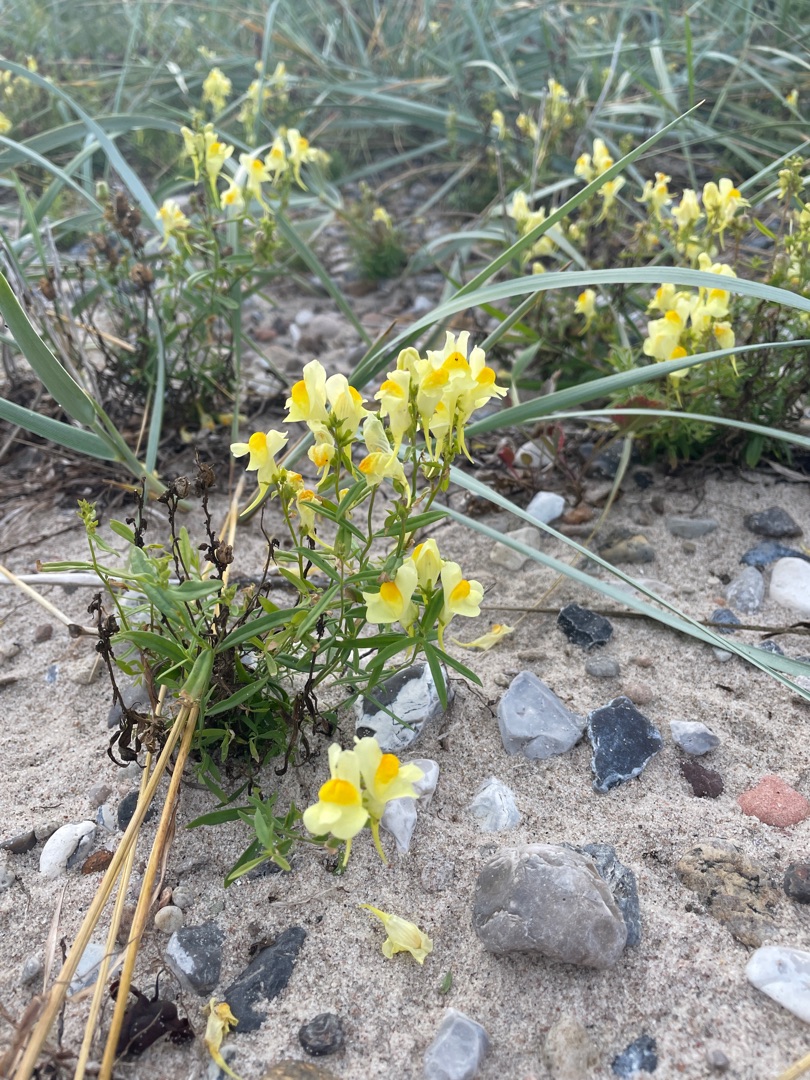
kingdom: Plantae
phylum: Tracheophyta
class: Magnoliopsida
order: Lamiales
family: Plantaginaceae
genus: Linaria
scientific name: Linaria vulgaris
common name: Almindelig torskemund
